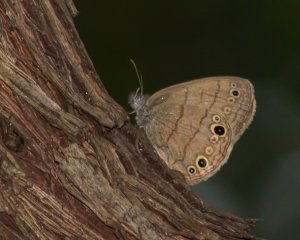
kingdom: Animalia
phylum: Arthropoda
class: Insecta
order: Lepidoptera
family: Nymphalidae
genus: Hermeuptychia
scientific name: Hermeuptychia hermes
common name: Carolina Satyr
